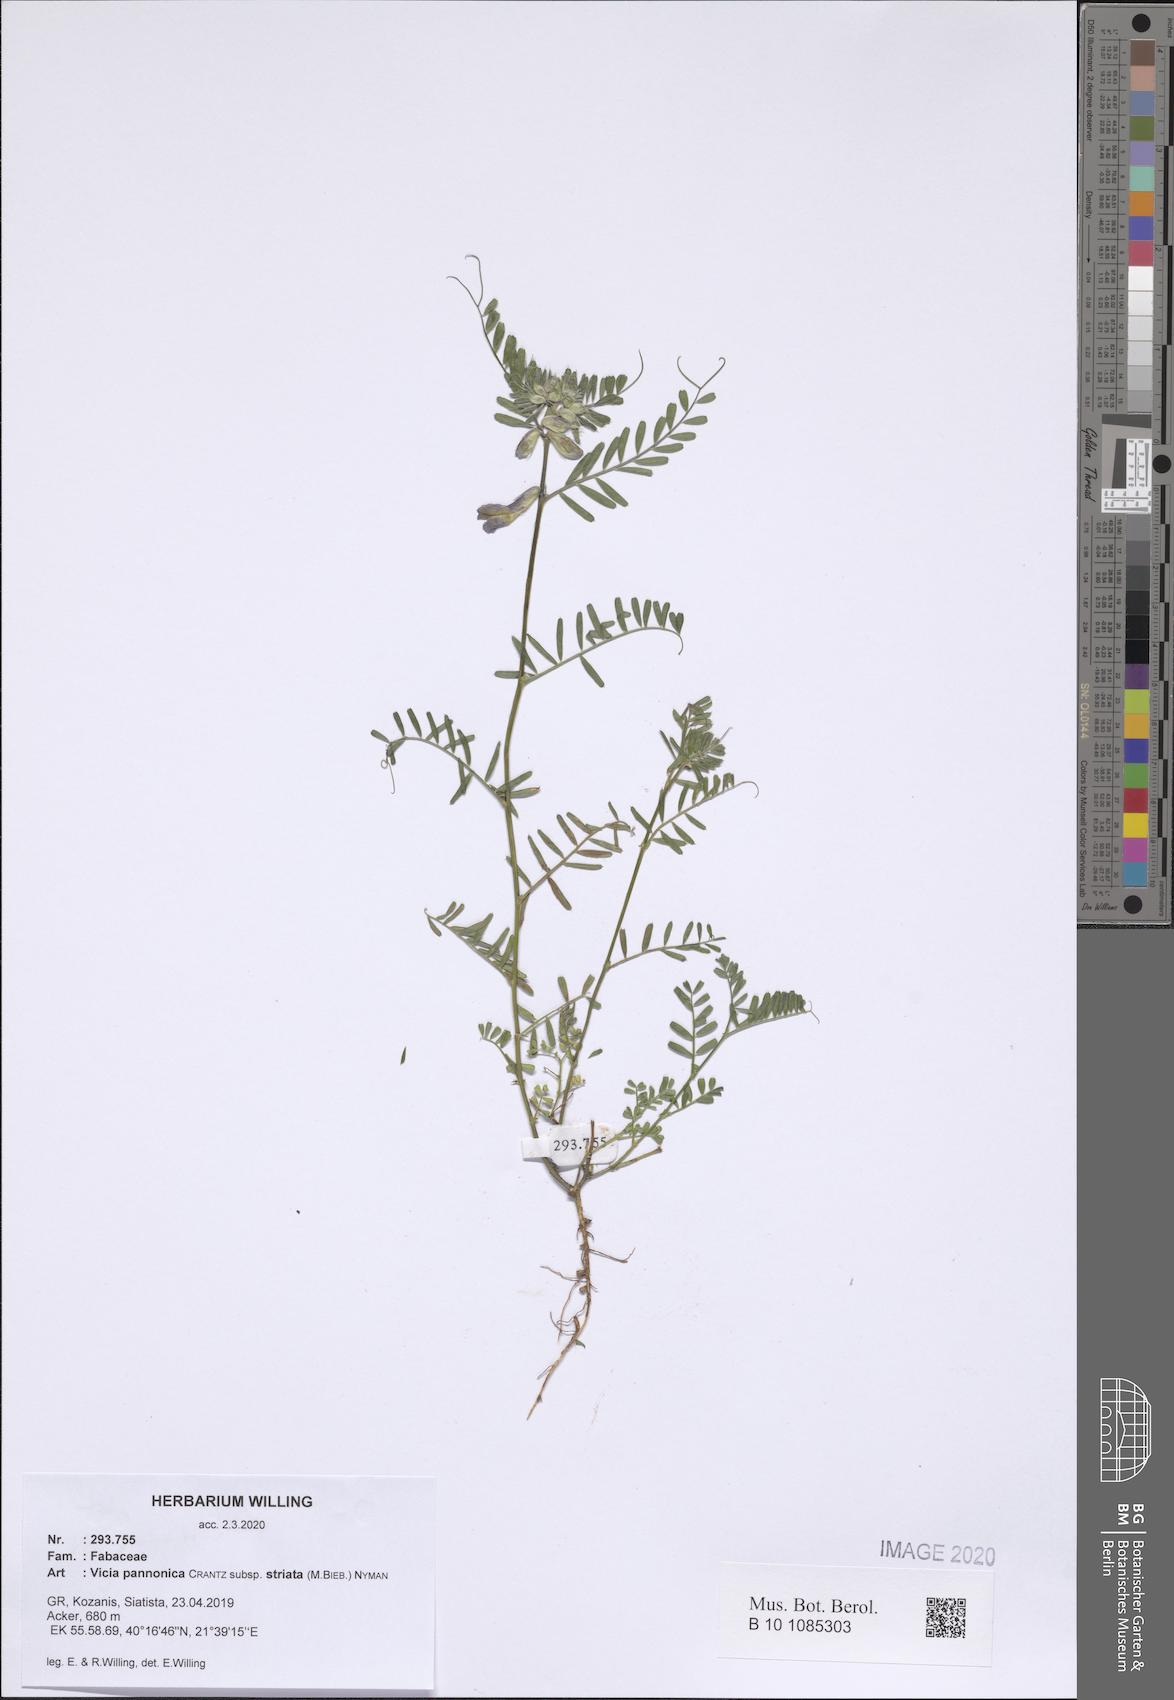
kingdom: Plantae
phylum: Tracheophyta
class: Magnoliopsida
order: Fabales
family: Fabaceae
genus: Vicia
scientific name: Vicia pannonica
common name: Hungarian vetch
